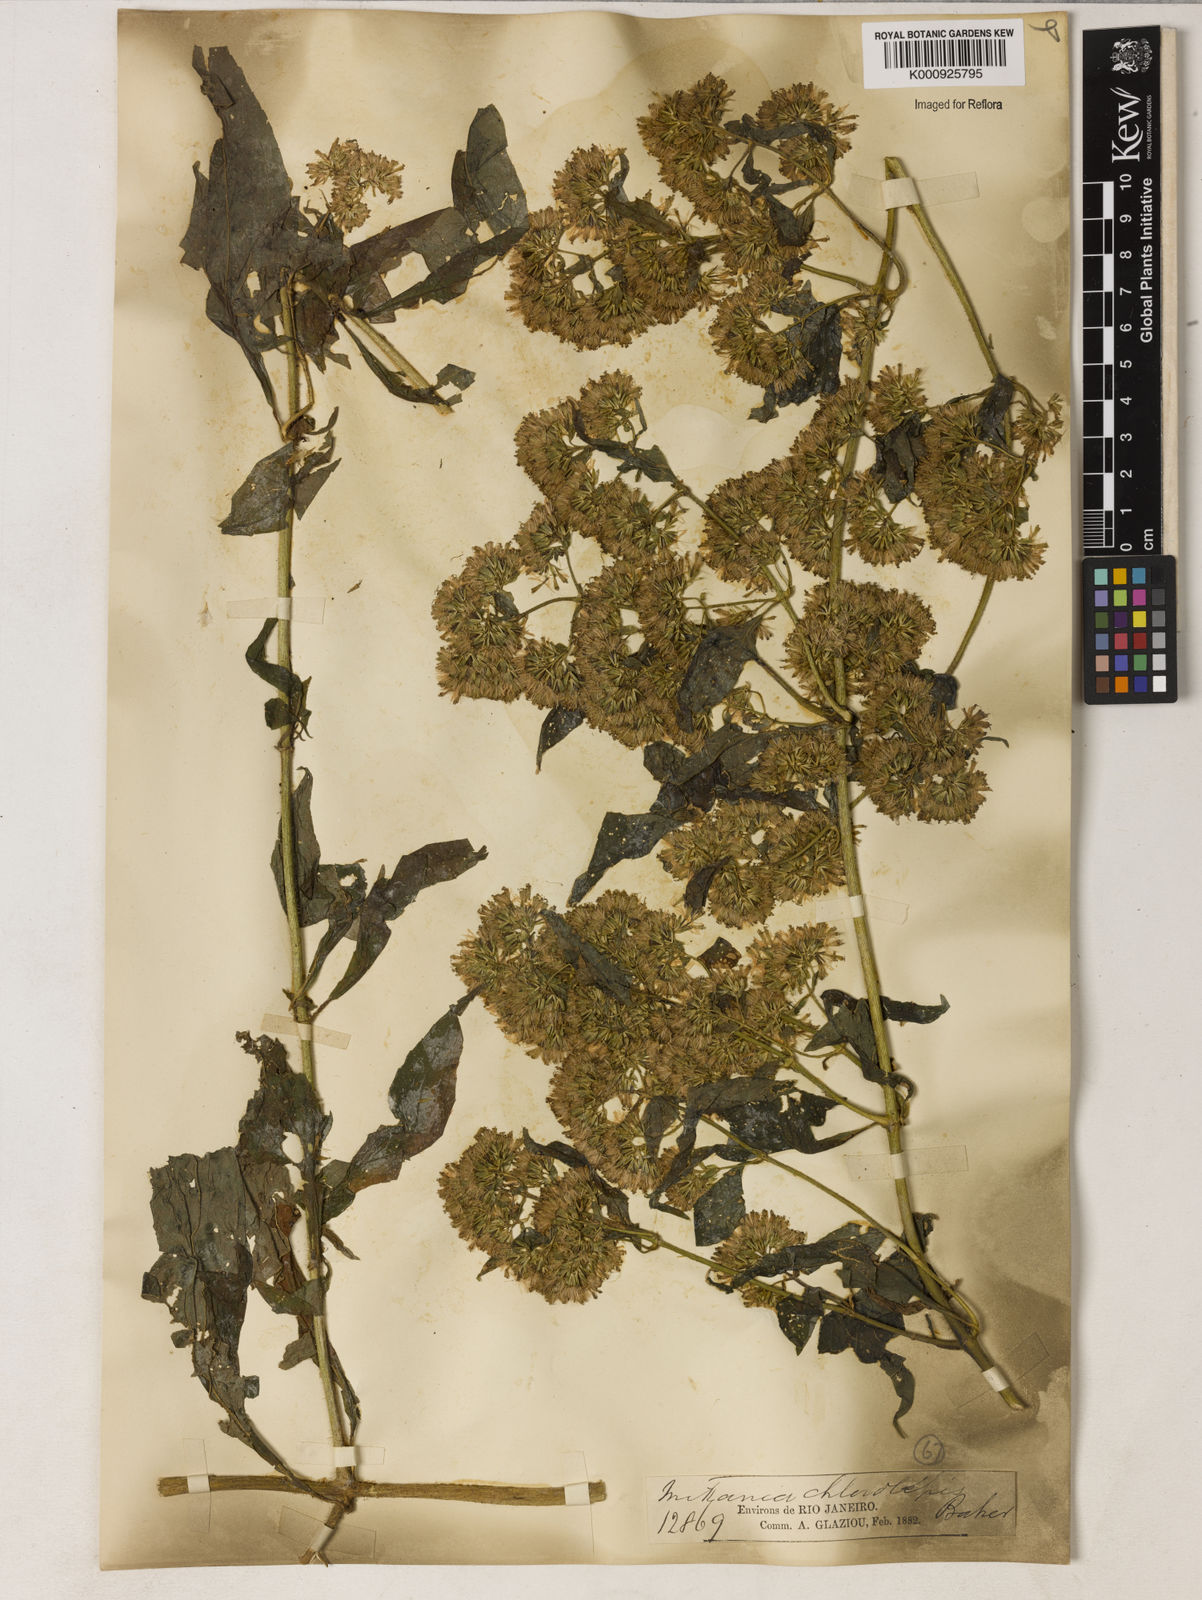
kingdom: Plantae
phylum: Tracheophyta
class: Magnoliopsida
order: Asterales
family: Asteraceae
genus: Mikania
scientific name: Mikania chlorolepis
